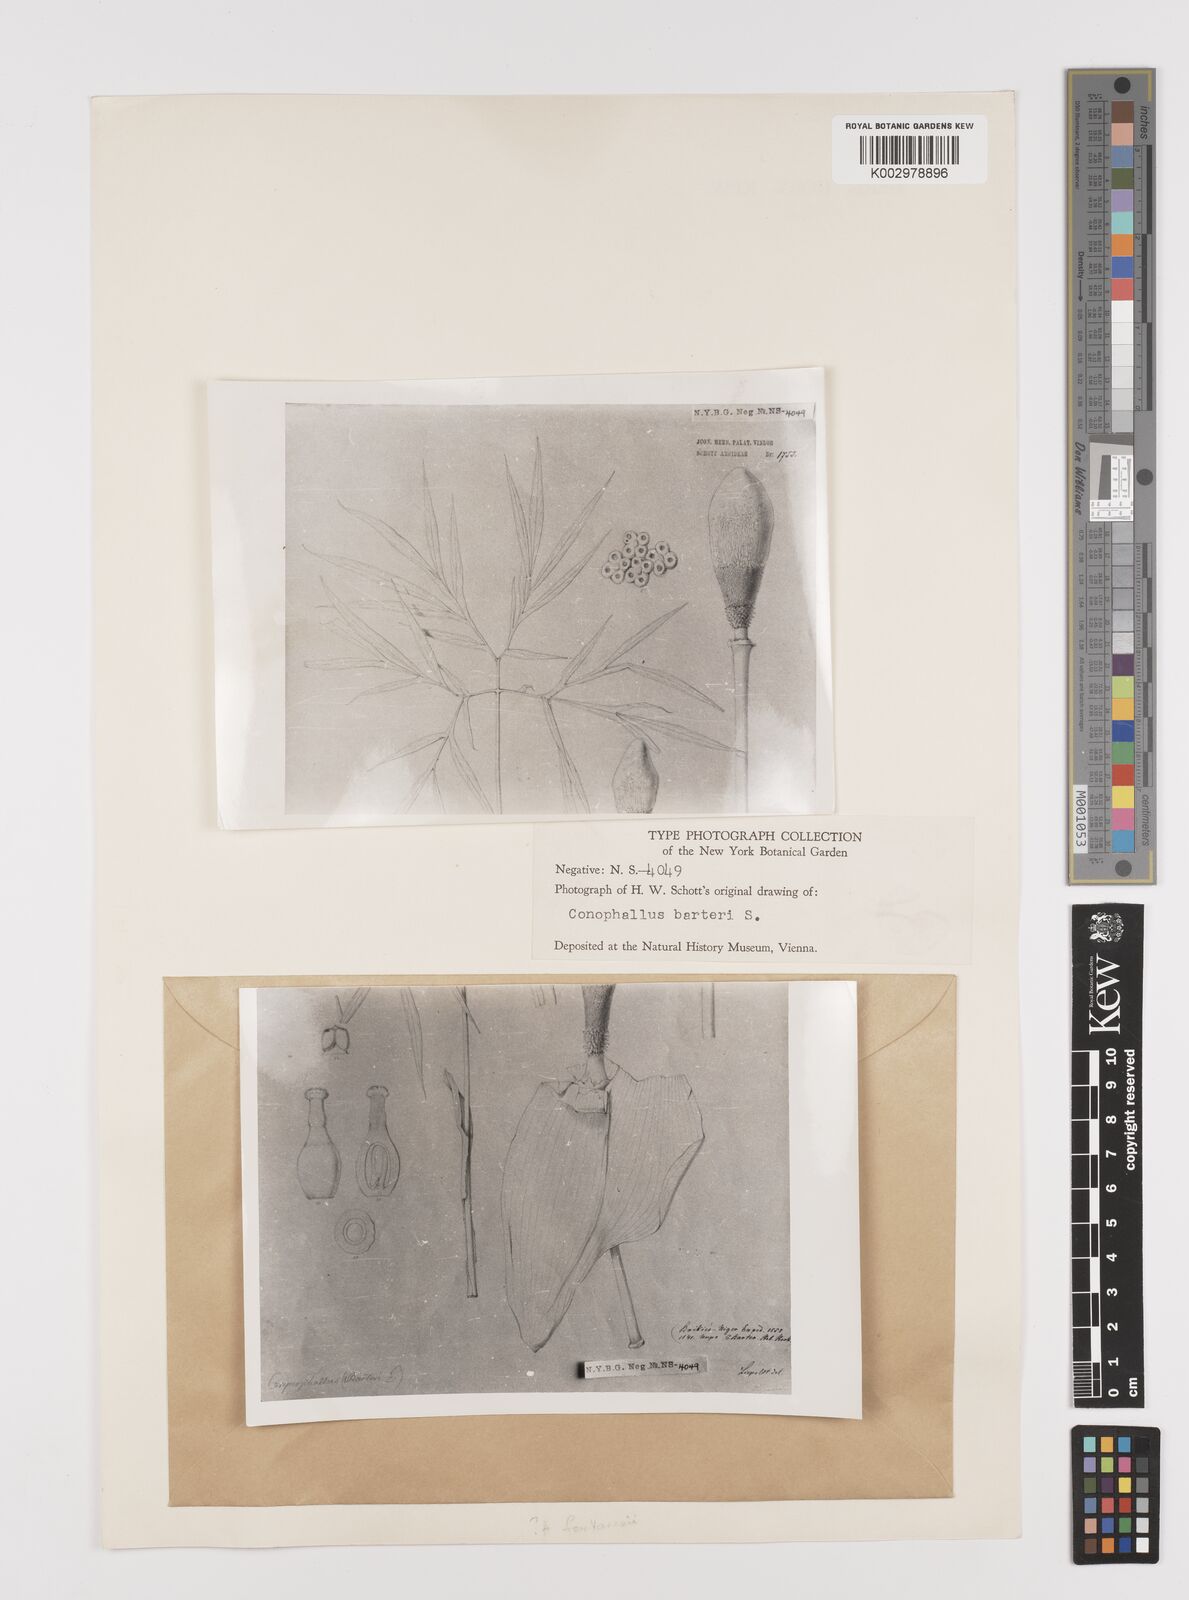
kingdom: Plantae
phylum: Tracheophyta
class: Liliopsida
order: Alismatales
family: Araceae
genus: Amorphophallus
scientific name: Amorphophallus abyssinicus
